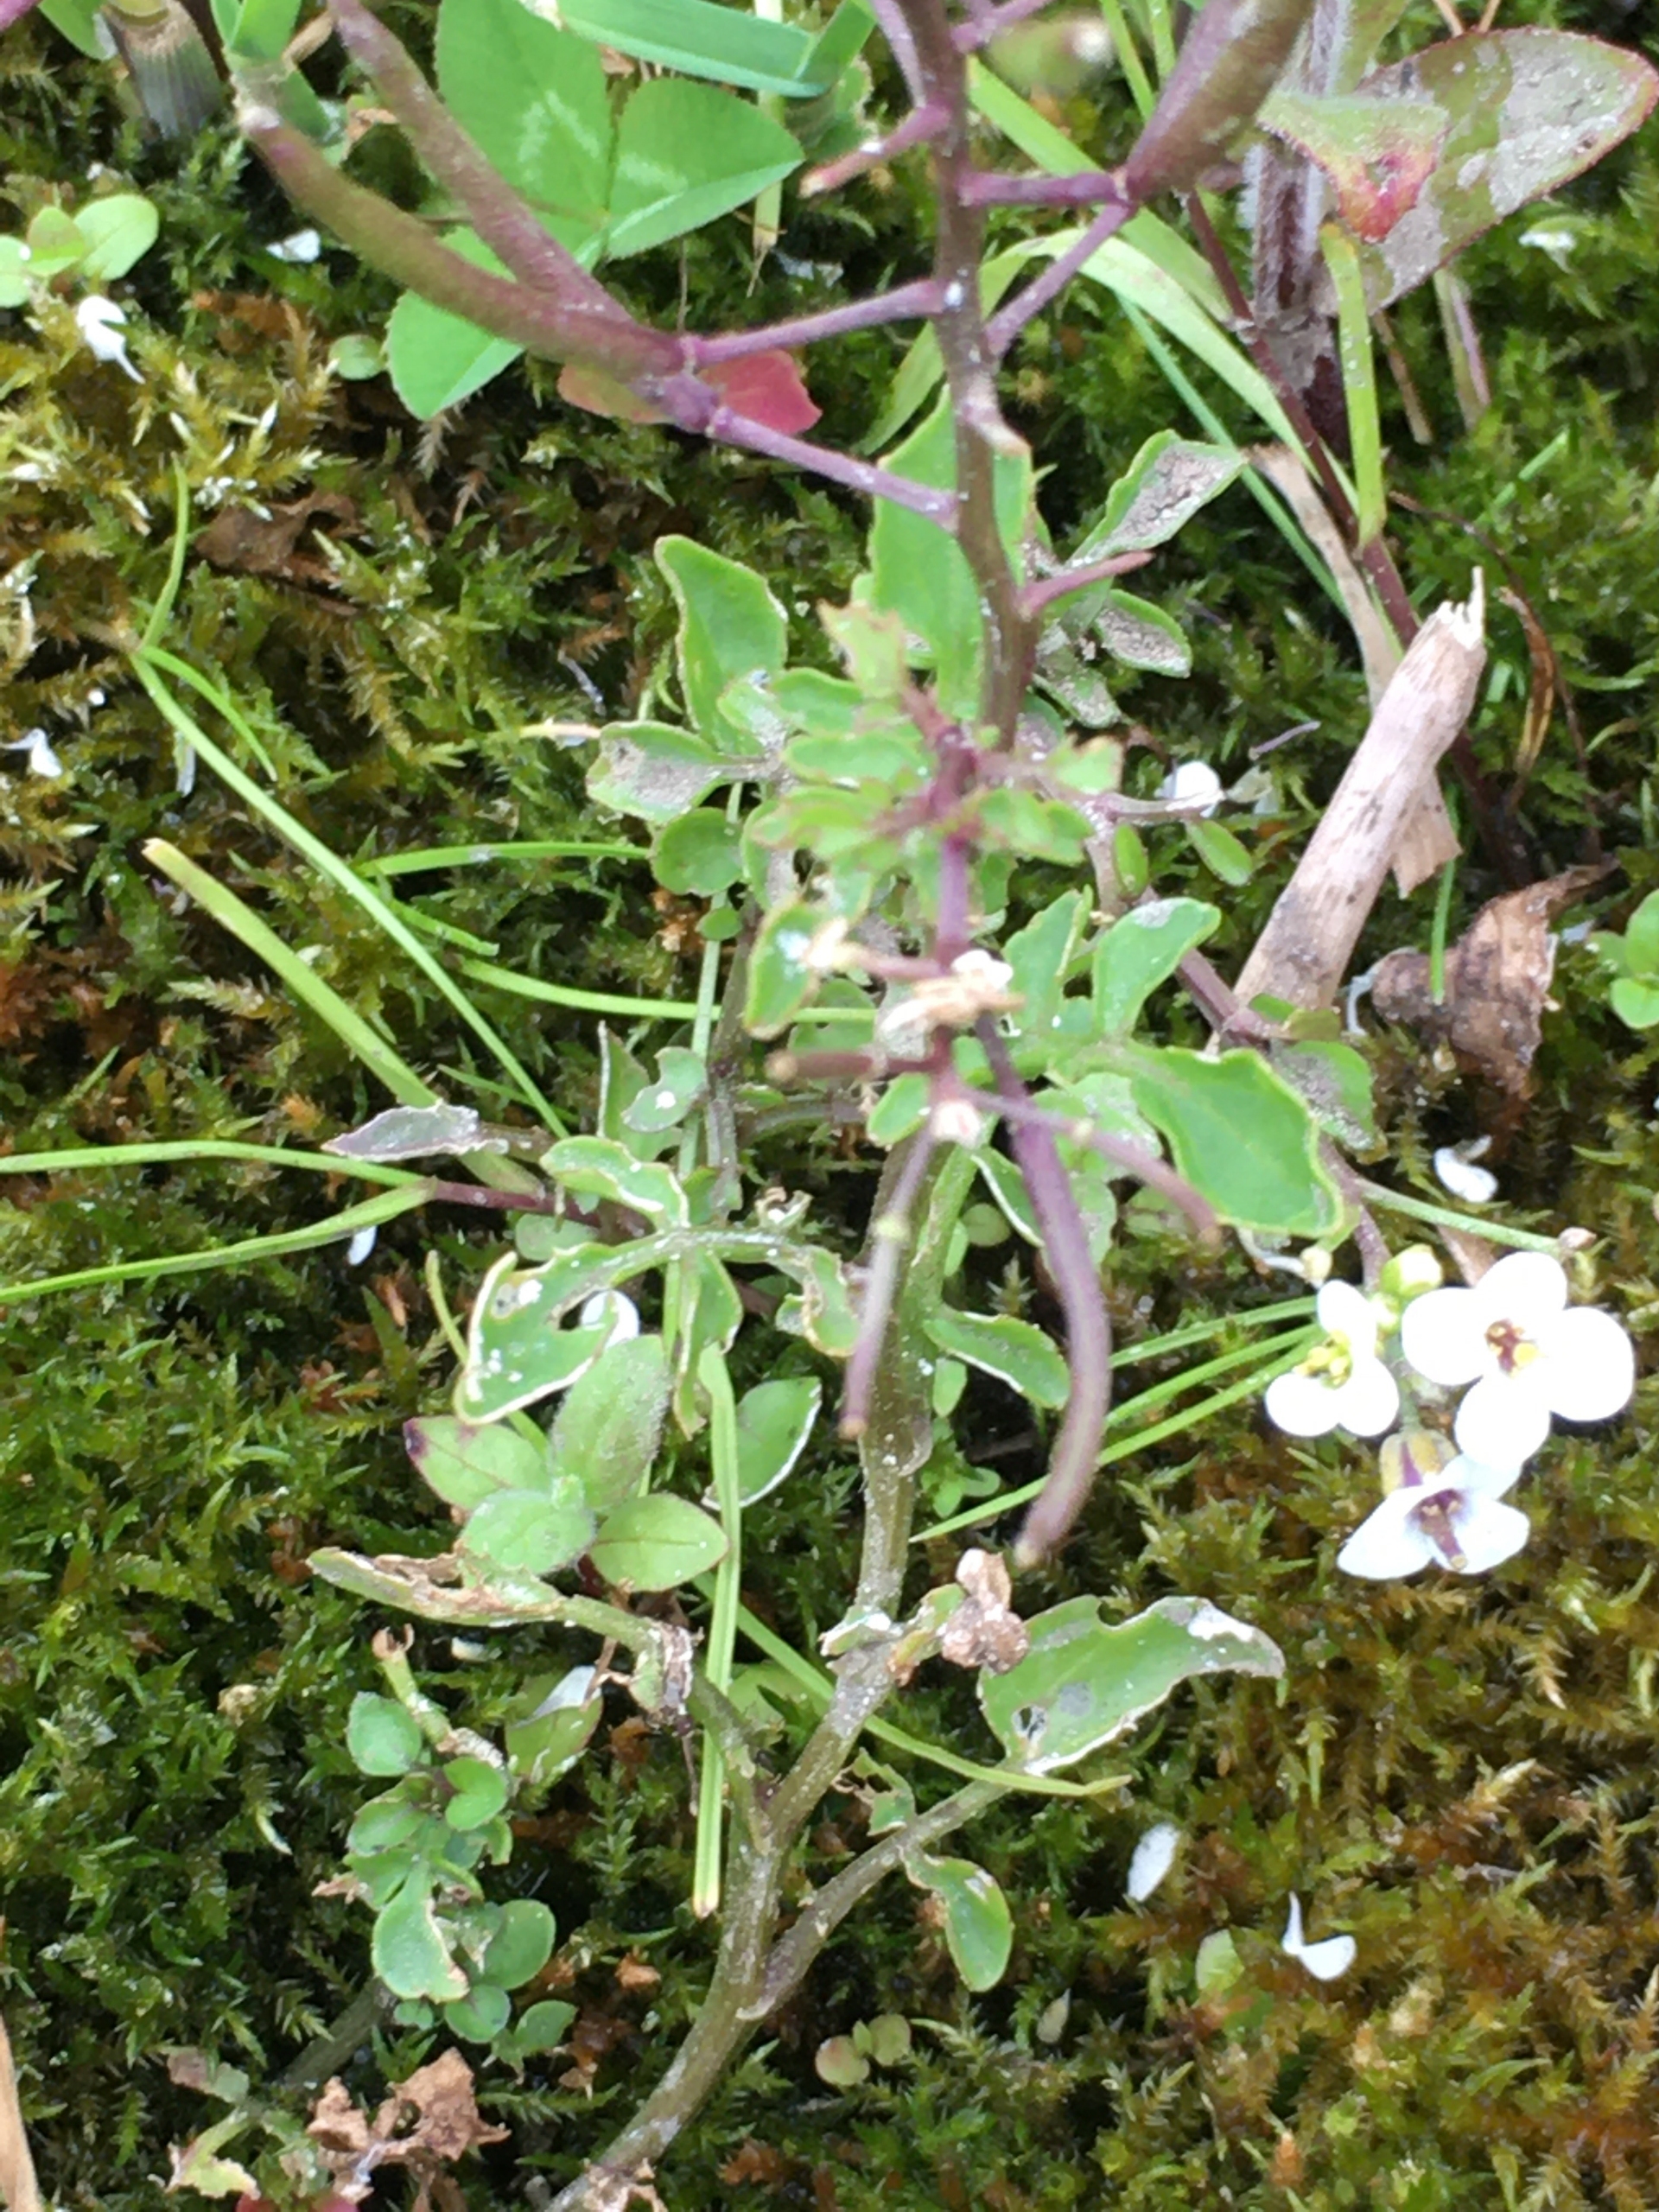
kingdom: Plantae
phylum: Tracheophyta
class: Magnoliopsida
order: Brassicales
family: Brassicaceae
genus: Nasturtium
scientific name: Nasturtium microphyllum
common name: Tyndskulpet brøndkarse
